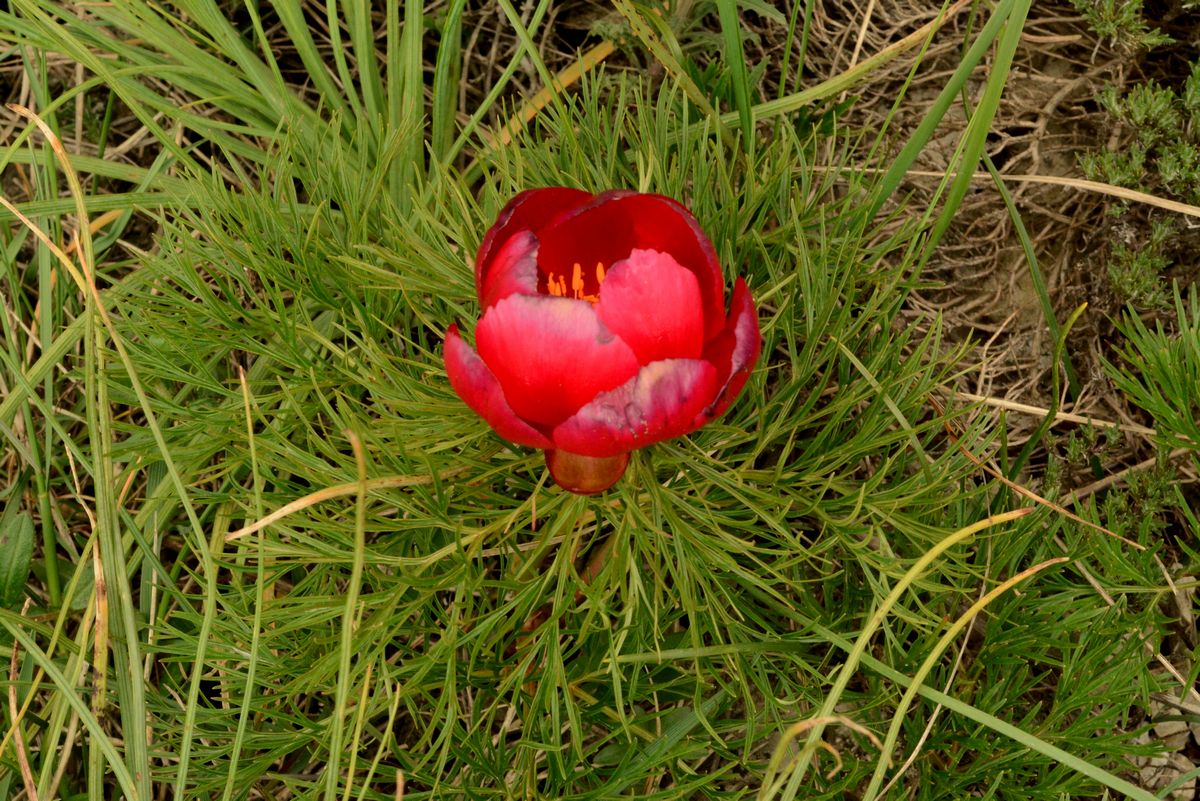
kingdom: Plantae
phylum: Tracheophyta
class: Magnoliopsida
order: Saxifragales
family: Paeoniaceae
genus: Paeonia
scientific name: Paeonia tenuifolia
